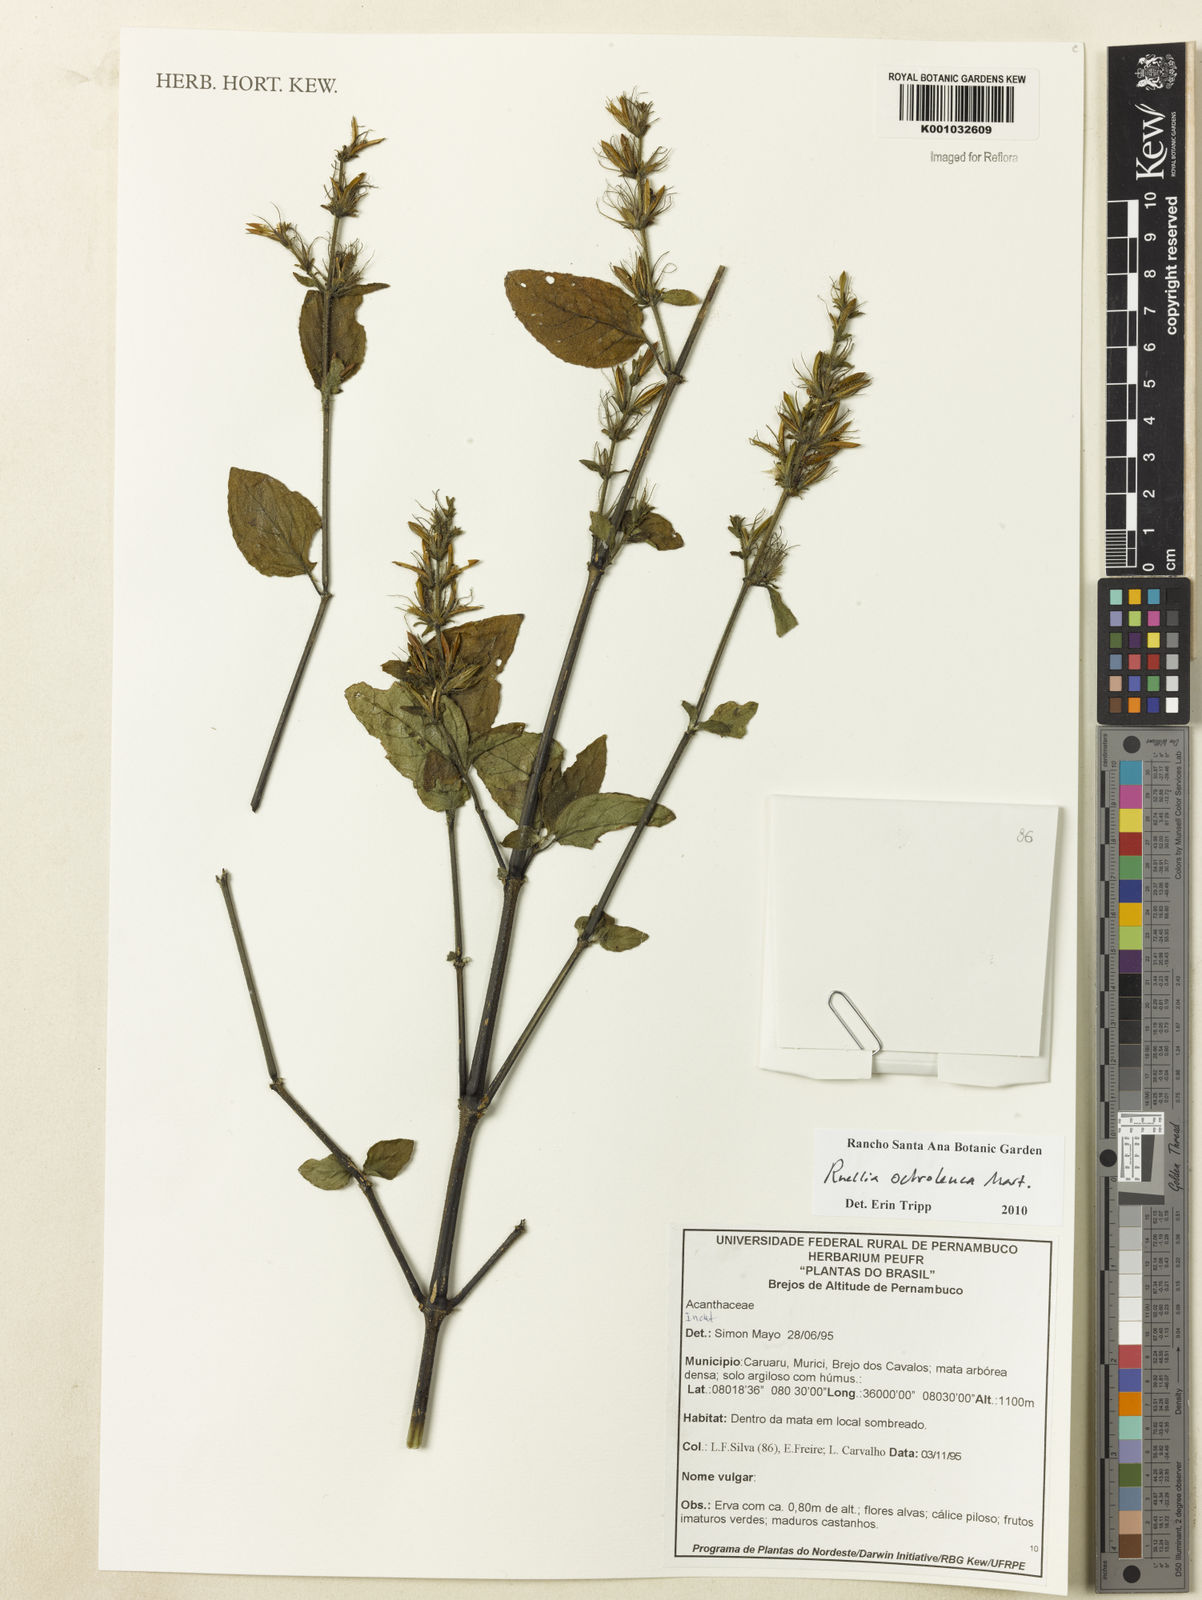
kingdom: Plantae
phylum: Tracheophyta
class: Magnoliopsida
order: Lamiales
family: Acanthaceae
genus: Ruellia
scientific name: Ruellia
